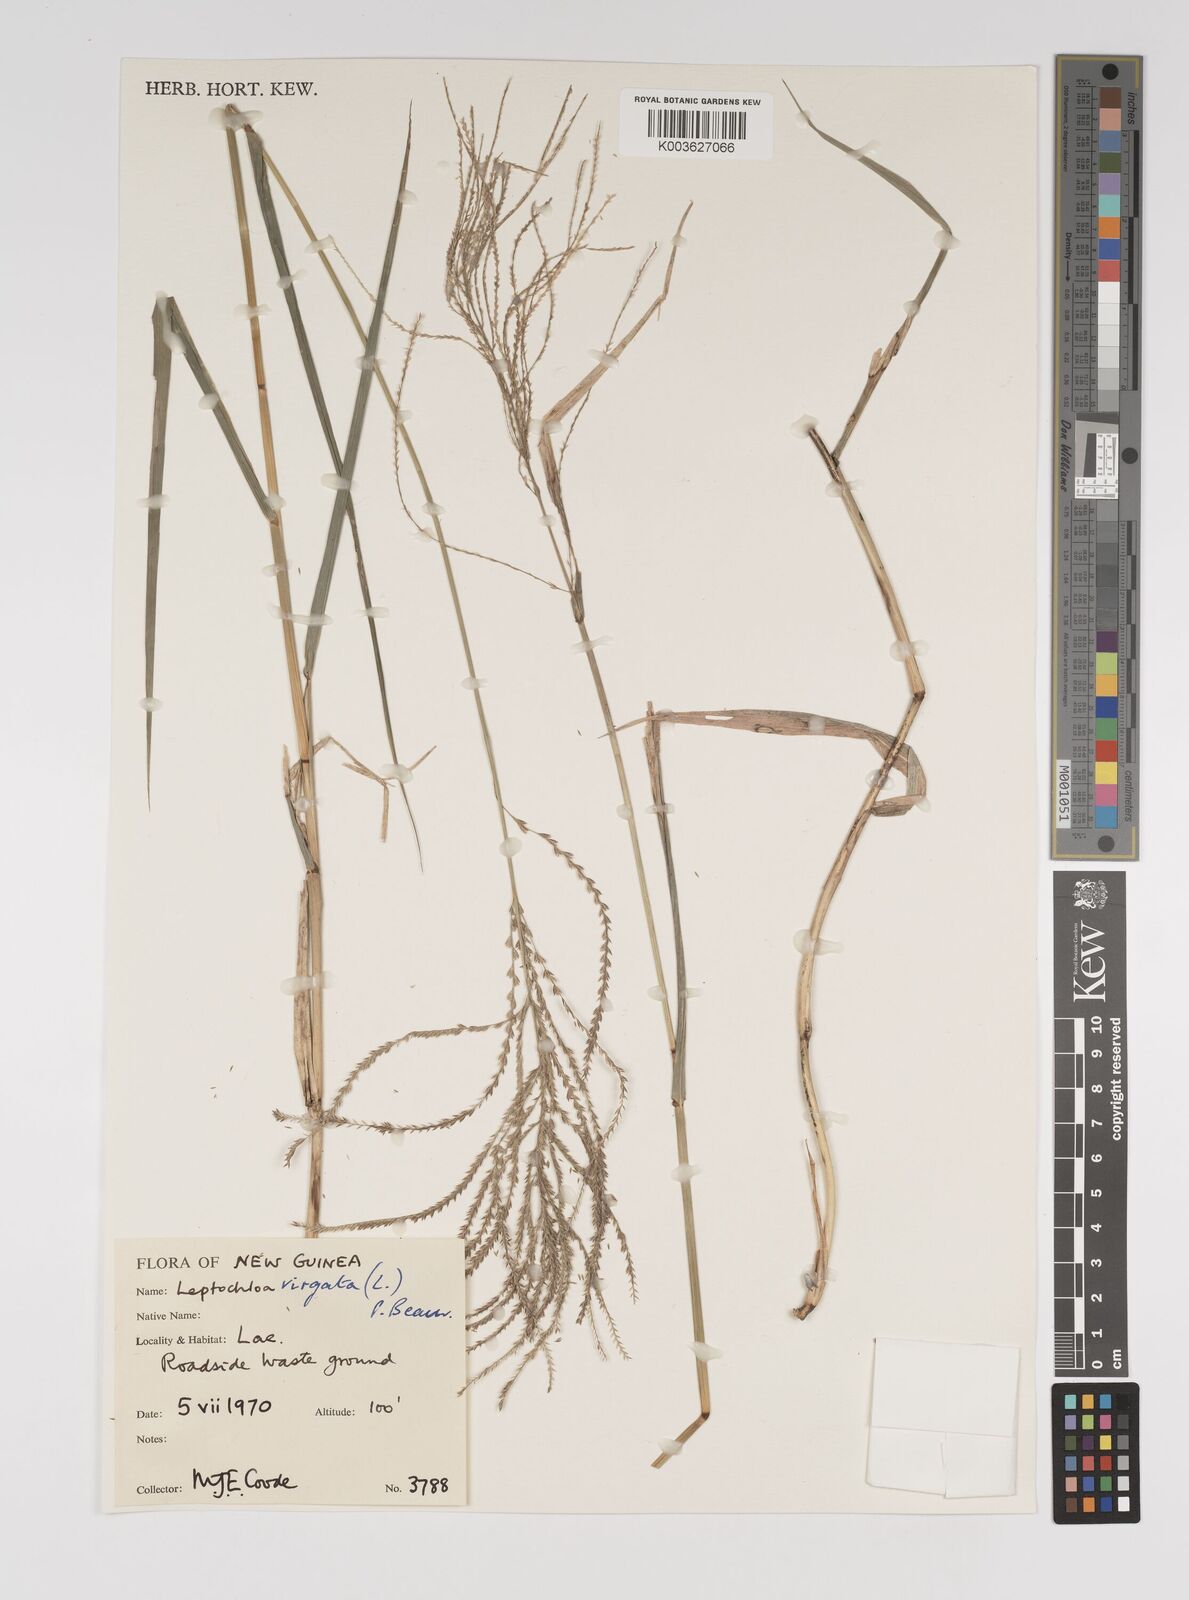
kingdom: Plantae
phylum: Tracheophyta
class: Liliopsida
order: Poales
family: Poaceae
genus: Leptochloa
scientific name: Leptochloa
